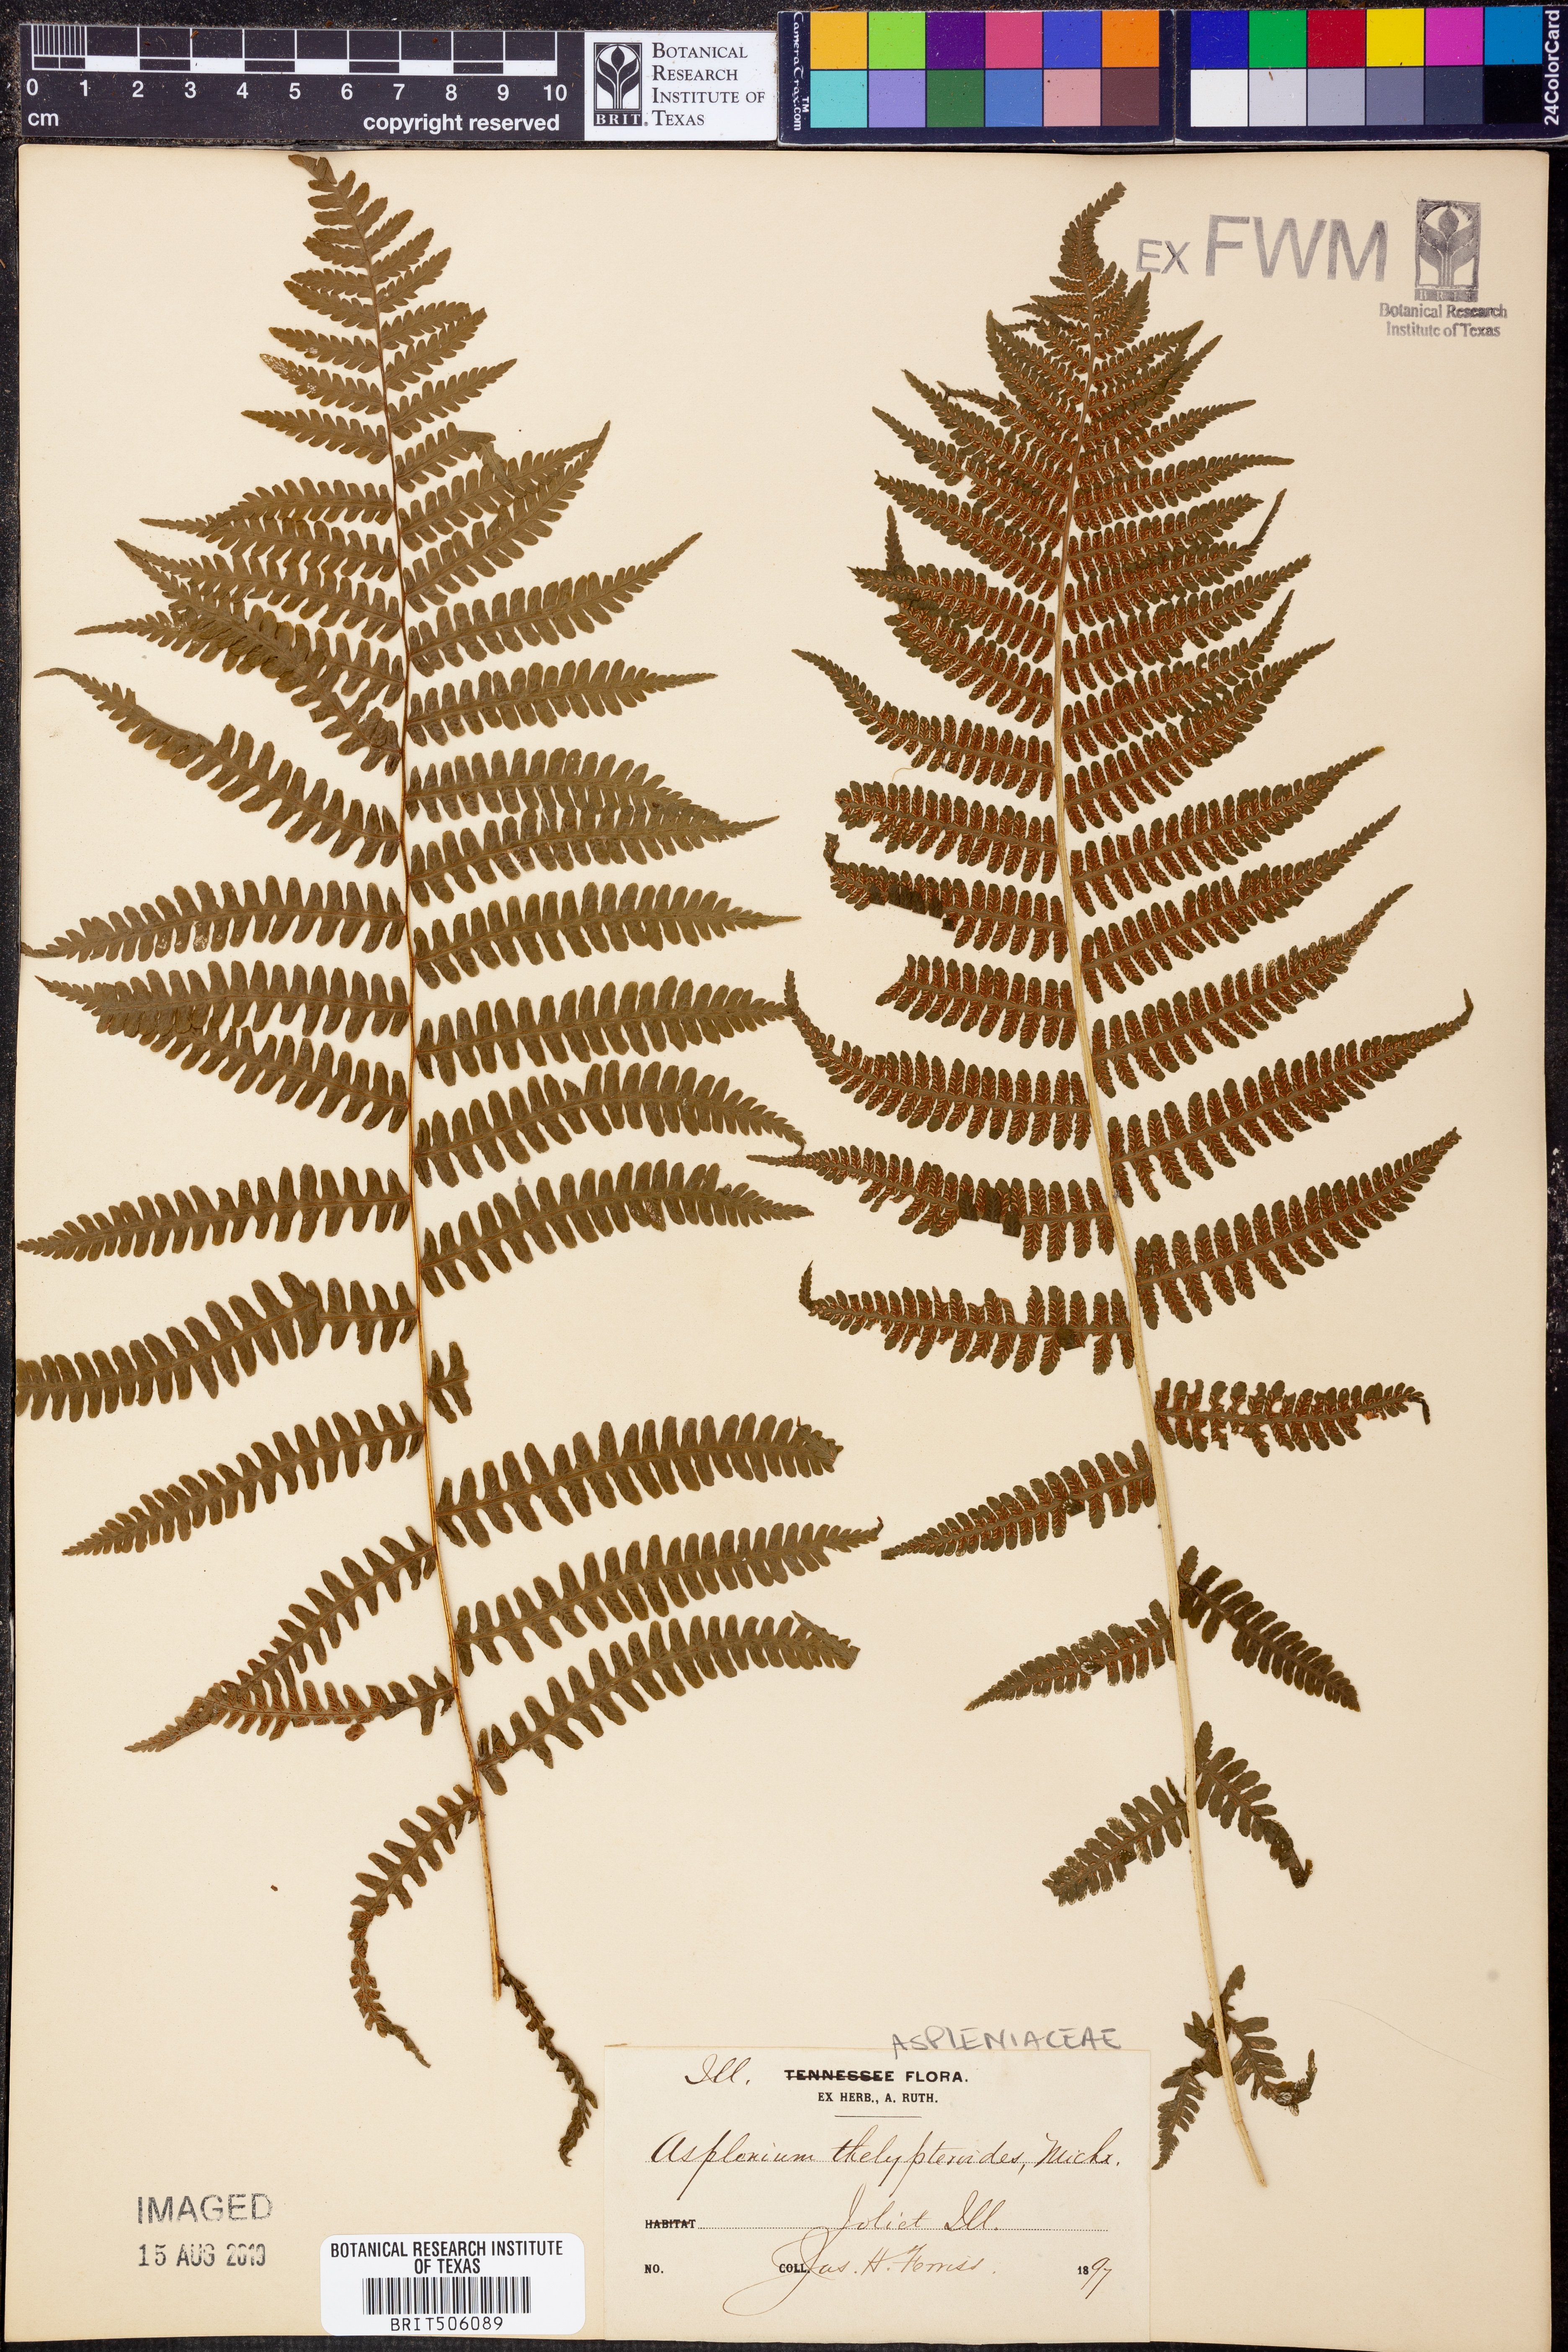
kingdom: Plantae
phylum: Tracheophyta
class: Polypodiopsida
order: Polypodiales
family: Athyriaceae
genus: Deparia
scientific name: Deparia acrostichoides
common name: Silver false spleenwort
